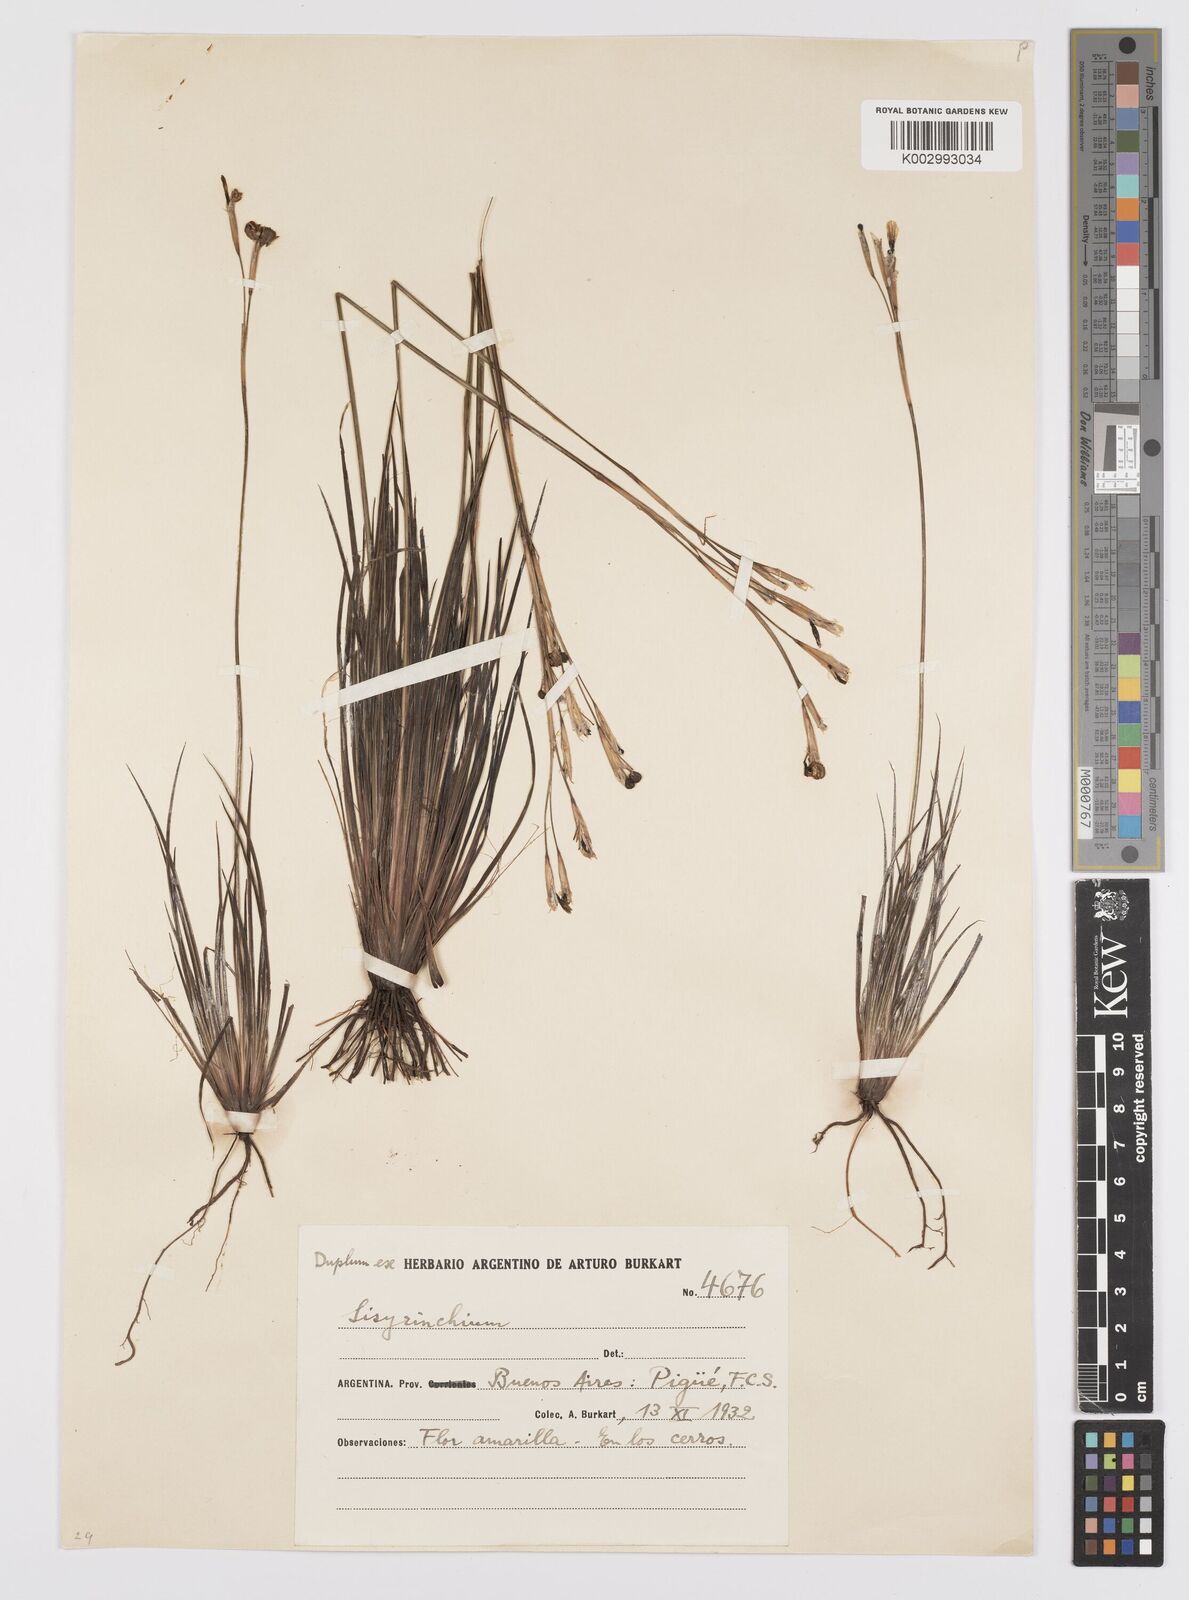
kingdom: Plantae
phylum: Tracheophyta
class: Liliopsida
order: Asparagales
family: Iridaceae
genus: Sisyrinchium
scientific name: Sisyrinchium
